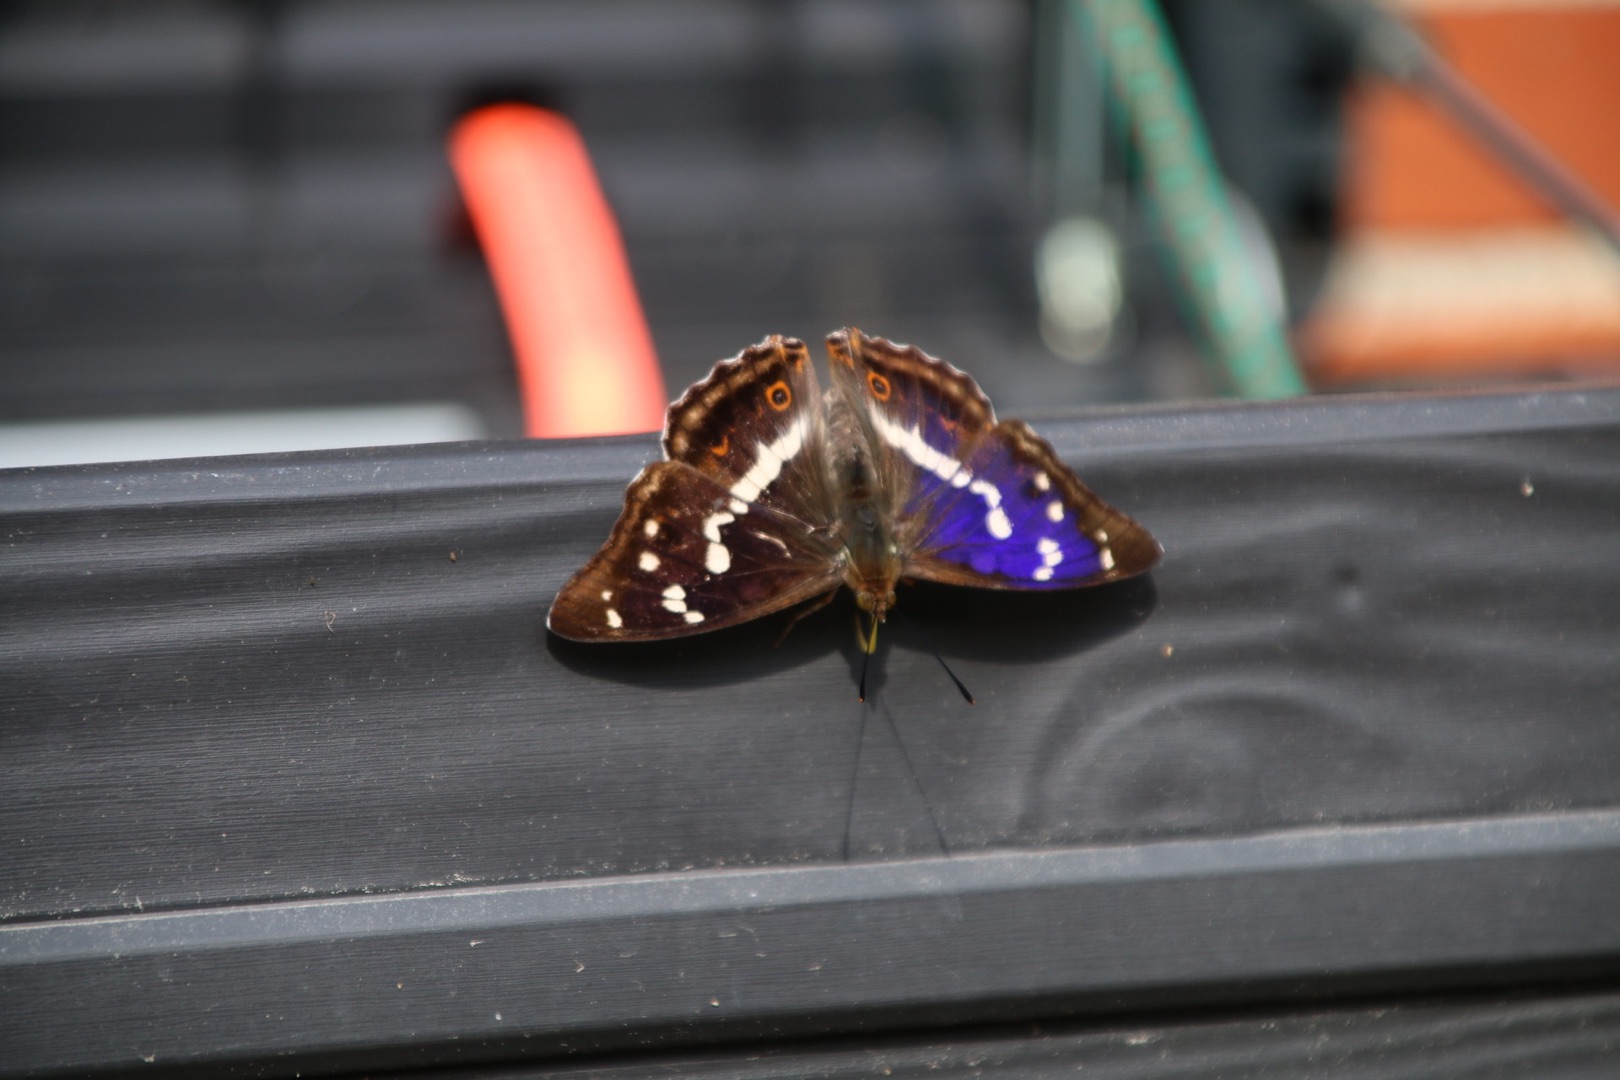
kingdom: Animalia
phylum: Arthropoda
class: Insecta
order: Lepidoptera
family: Nymphalidae
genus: Apatura
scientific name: Apatura iris
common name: Iris
